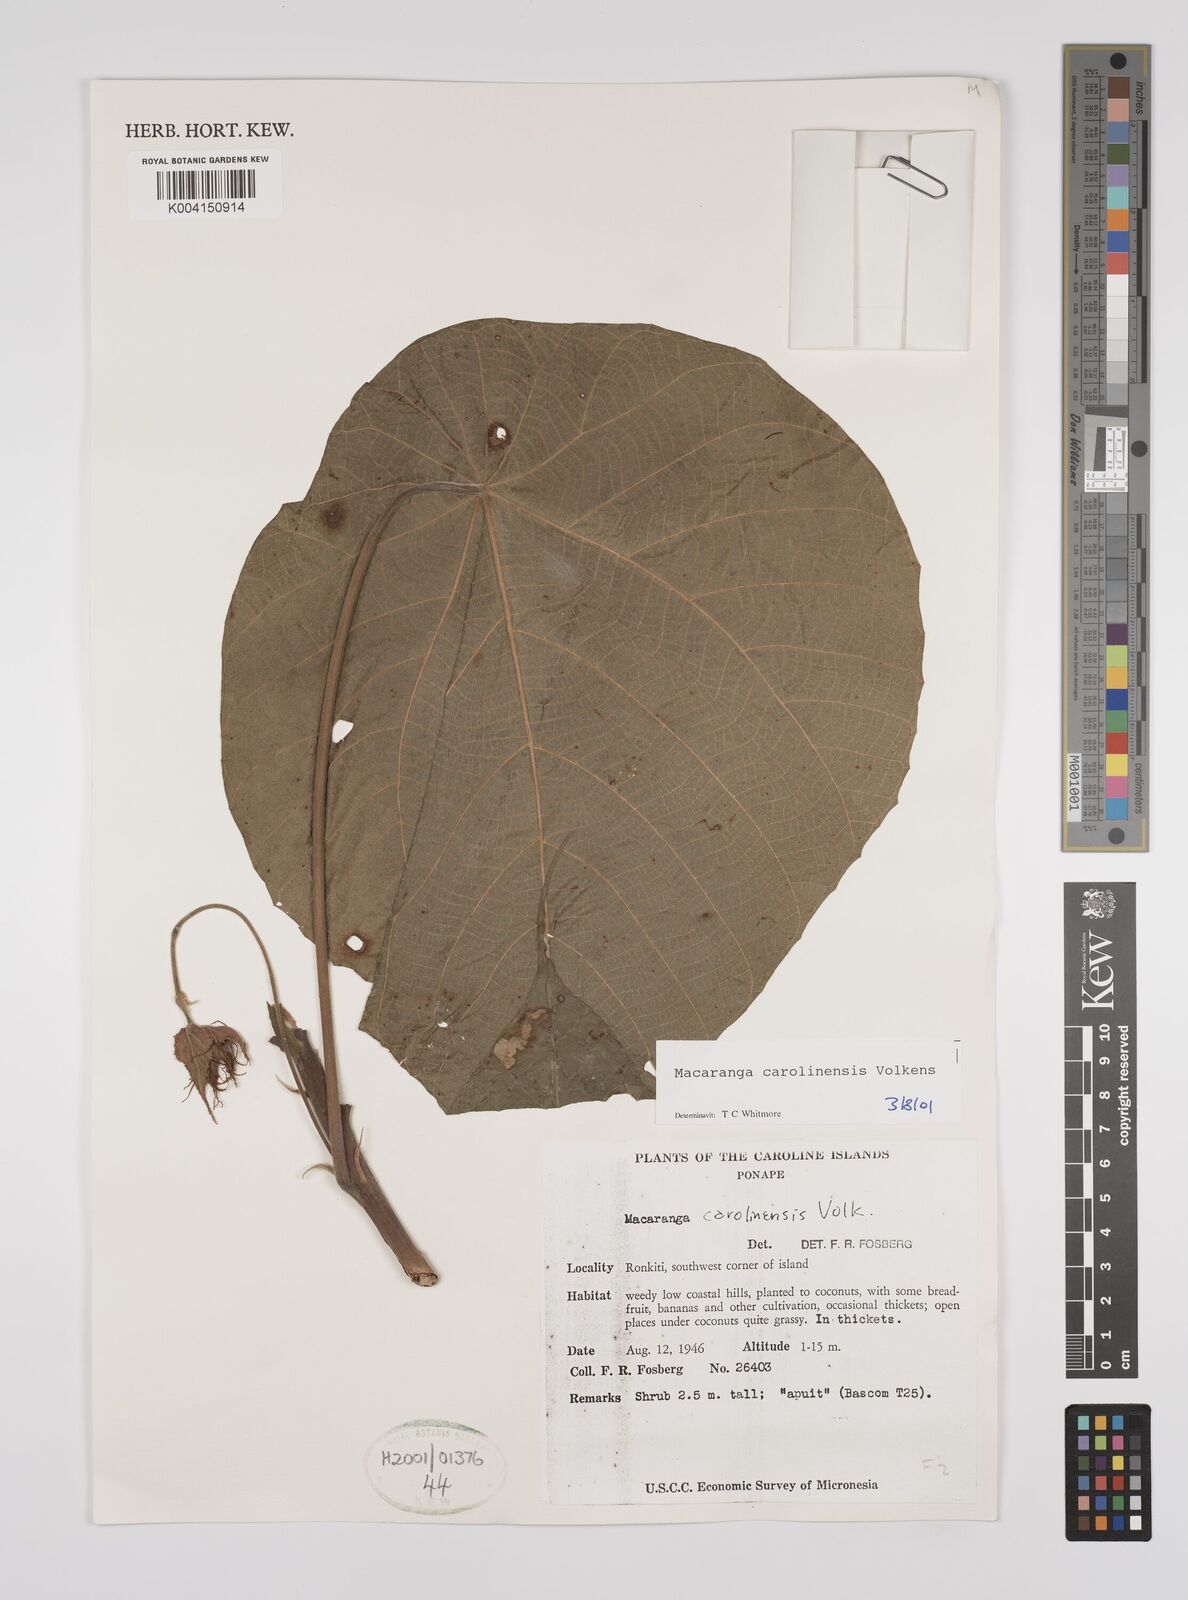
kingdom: Plantae
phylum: Tracheophyta
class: Magnoliopsida
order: Malpighiales
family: Euphorbiaceae
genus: Macaranga
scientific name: Macaranga carolinensis
